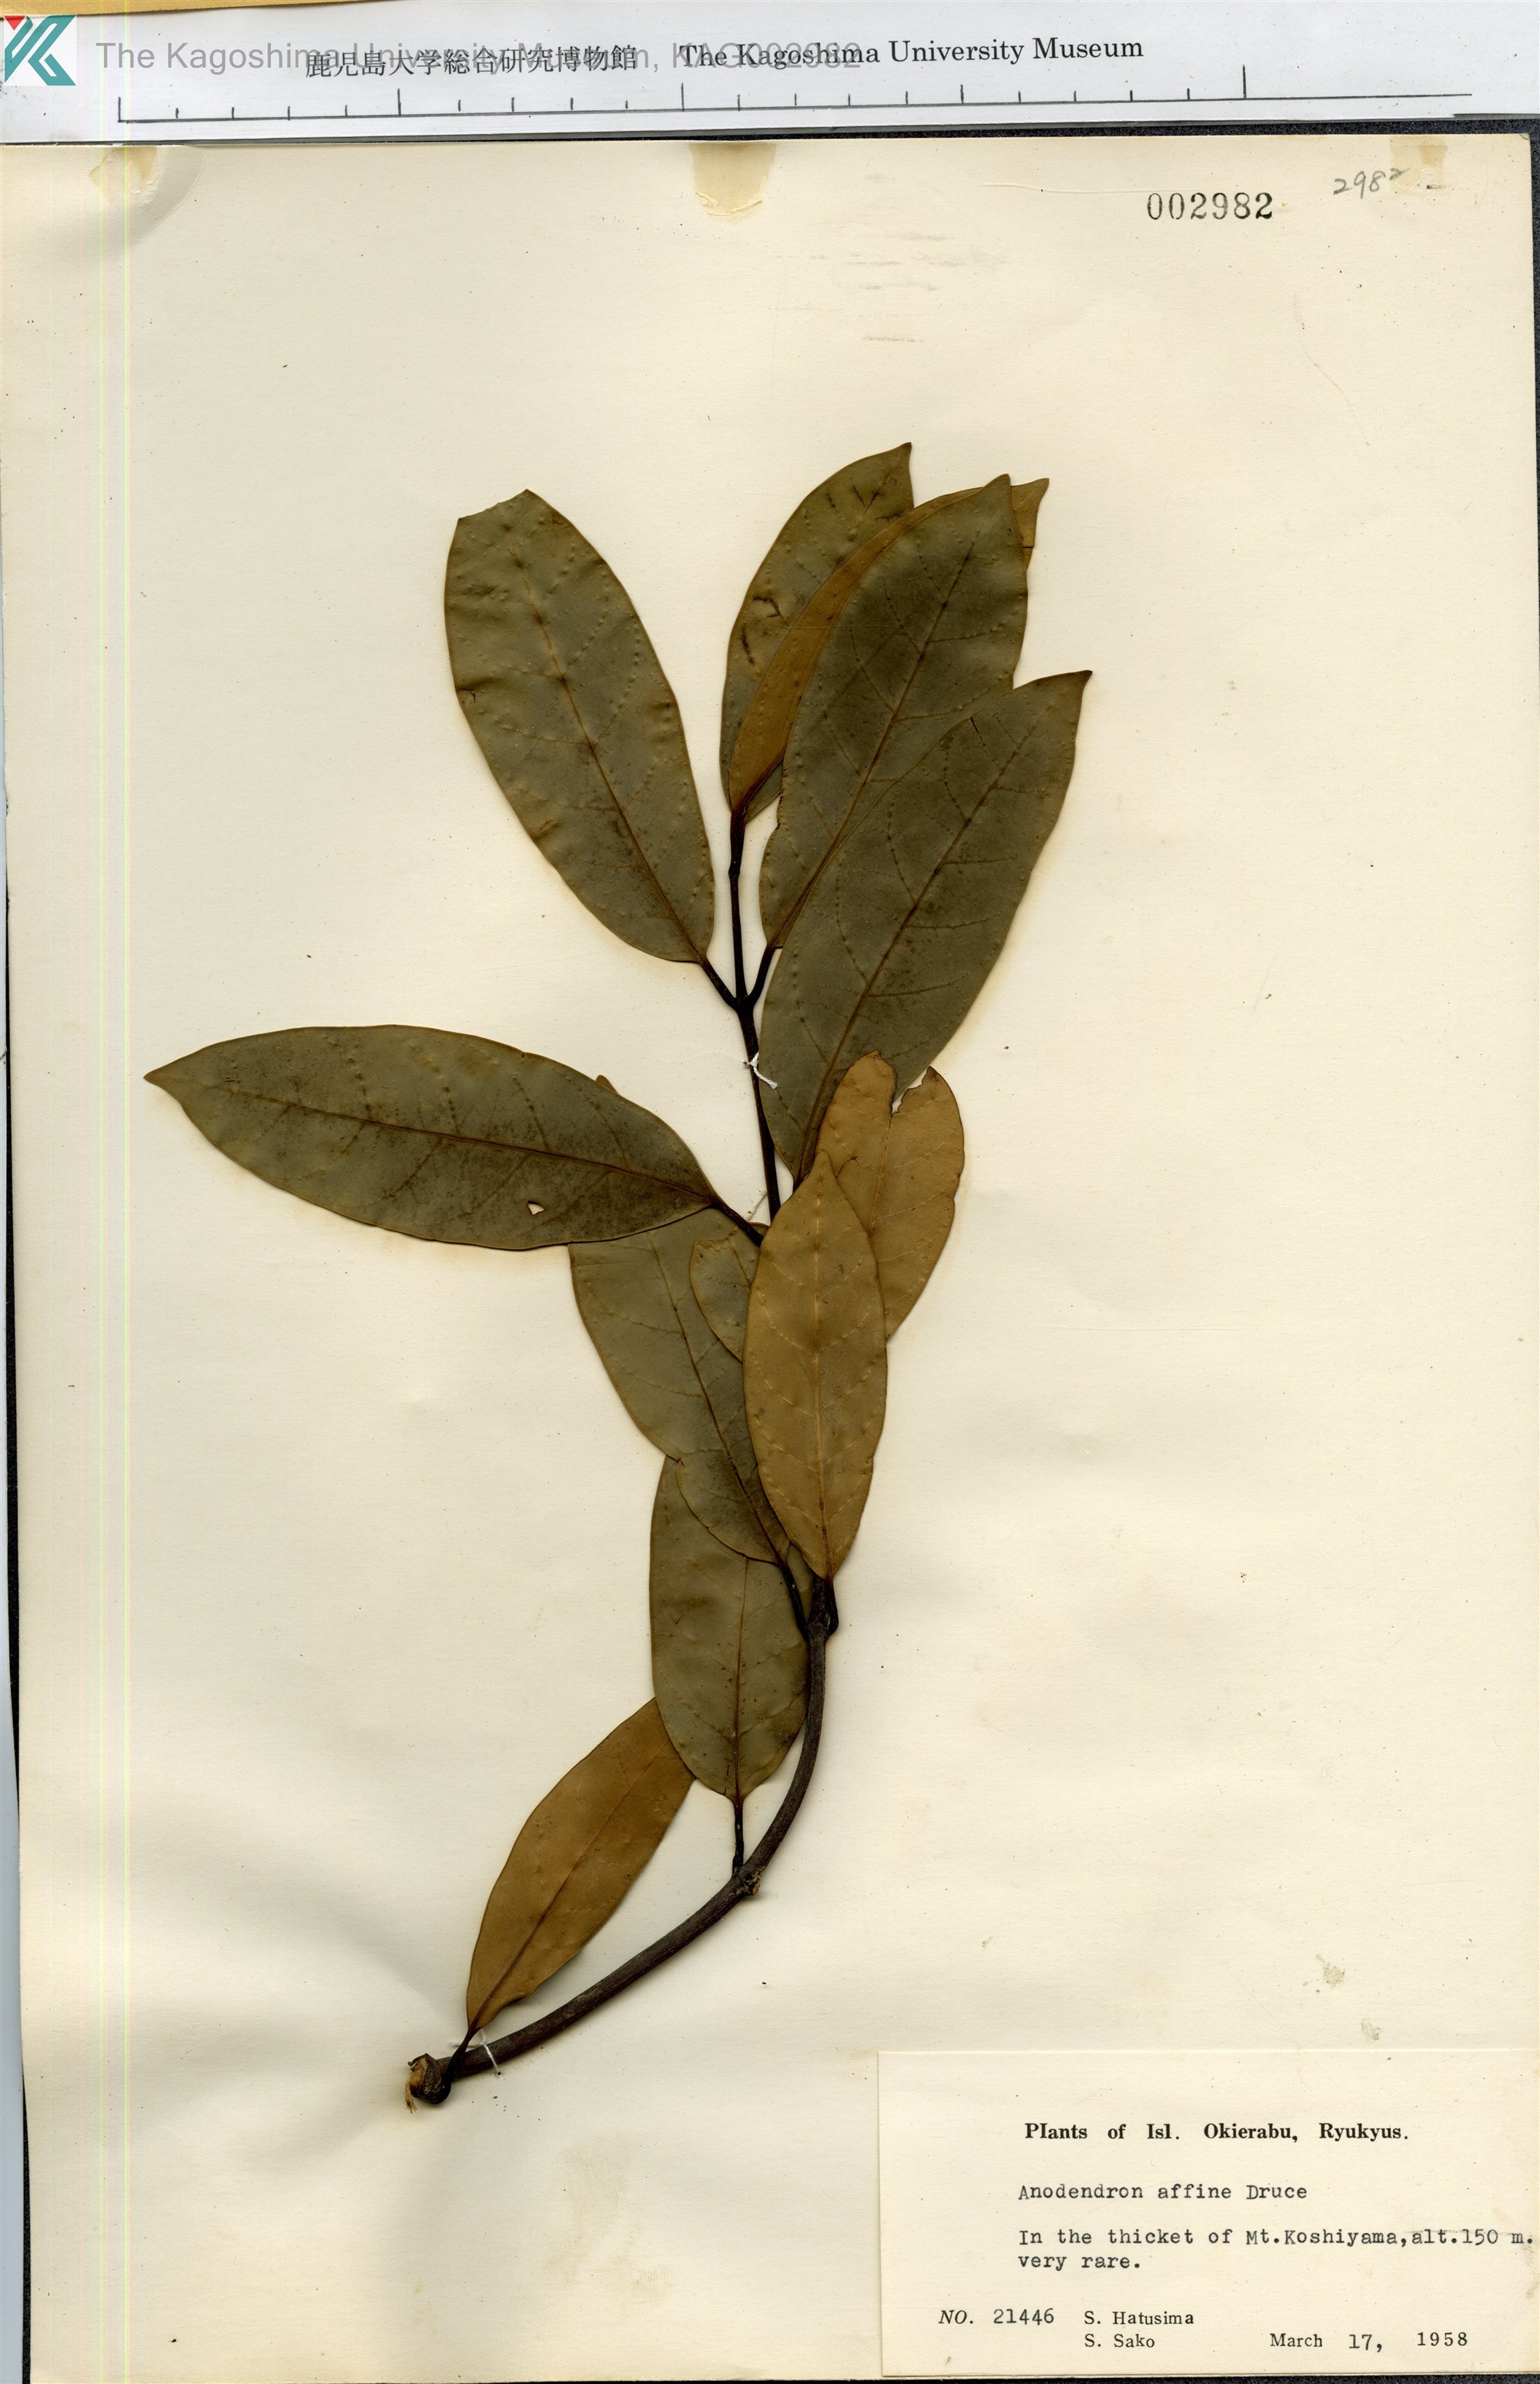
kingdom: Plantae
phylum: Tracheophyta
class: Magnoliopsida
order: Gentianales
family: Apocynaceae
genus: Anodendron
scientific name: Anodendron affine
